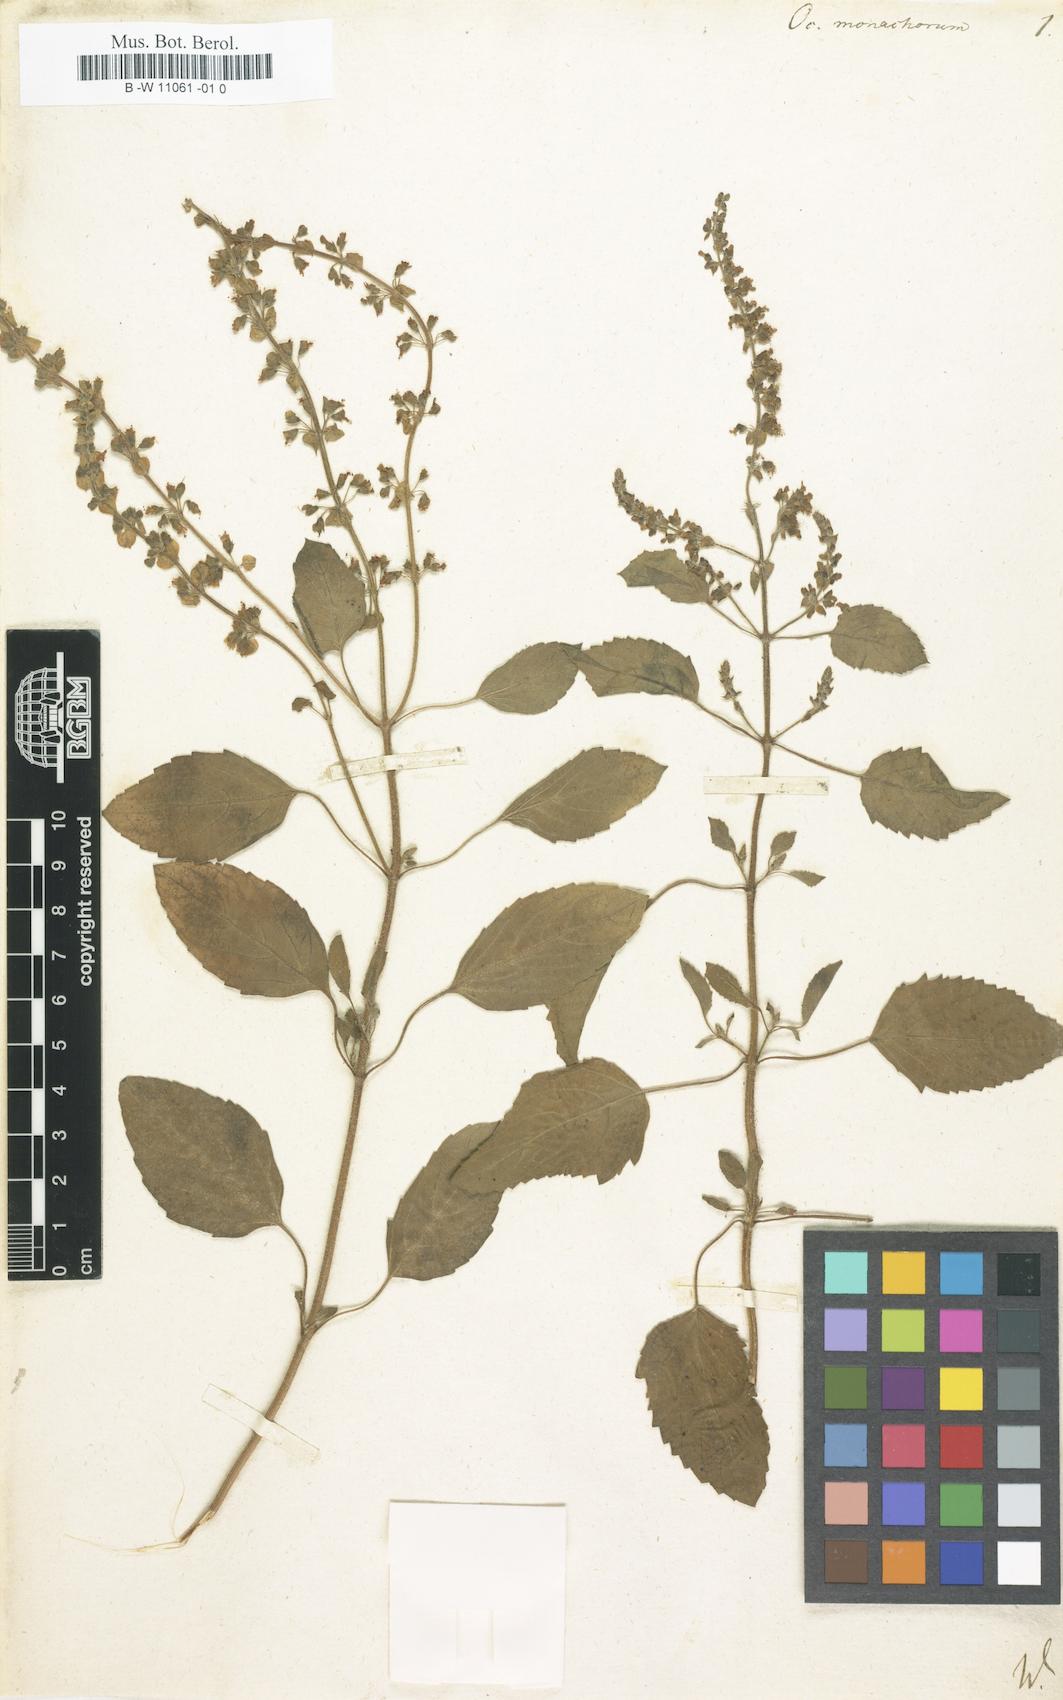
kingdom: Plantae
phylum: Tracheophyta
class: Magnoliopsida
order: Lamiales
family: Lamiaceae
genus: Ocimum
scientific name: Ocimum tenuiflorum
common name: Sacred basil
